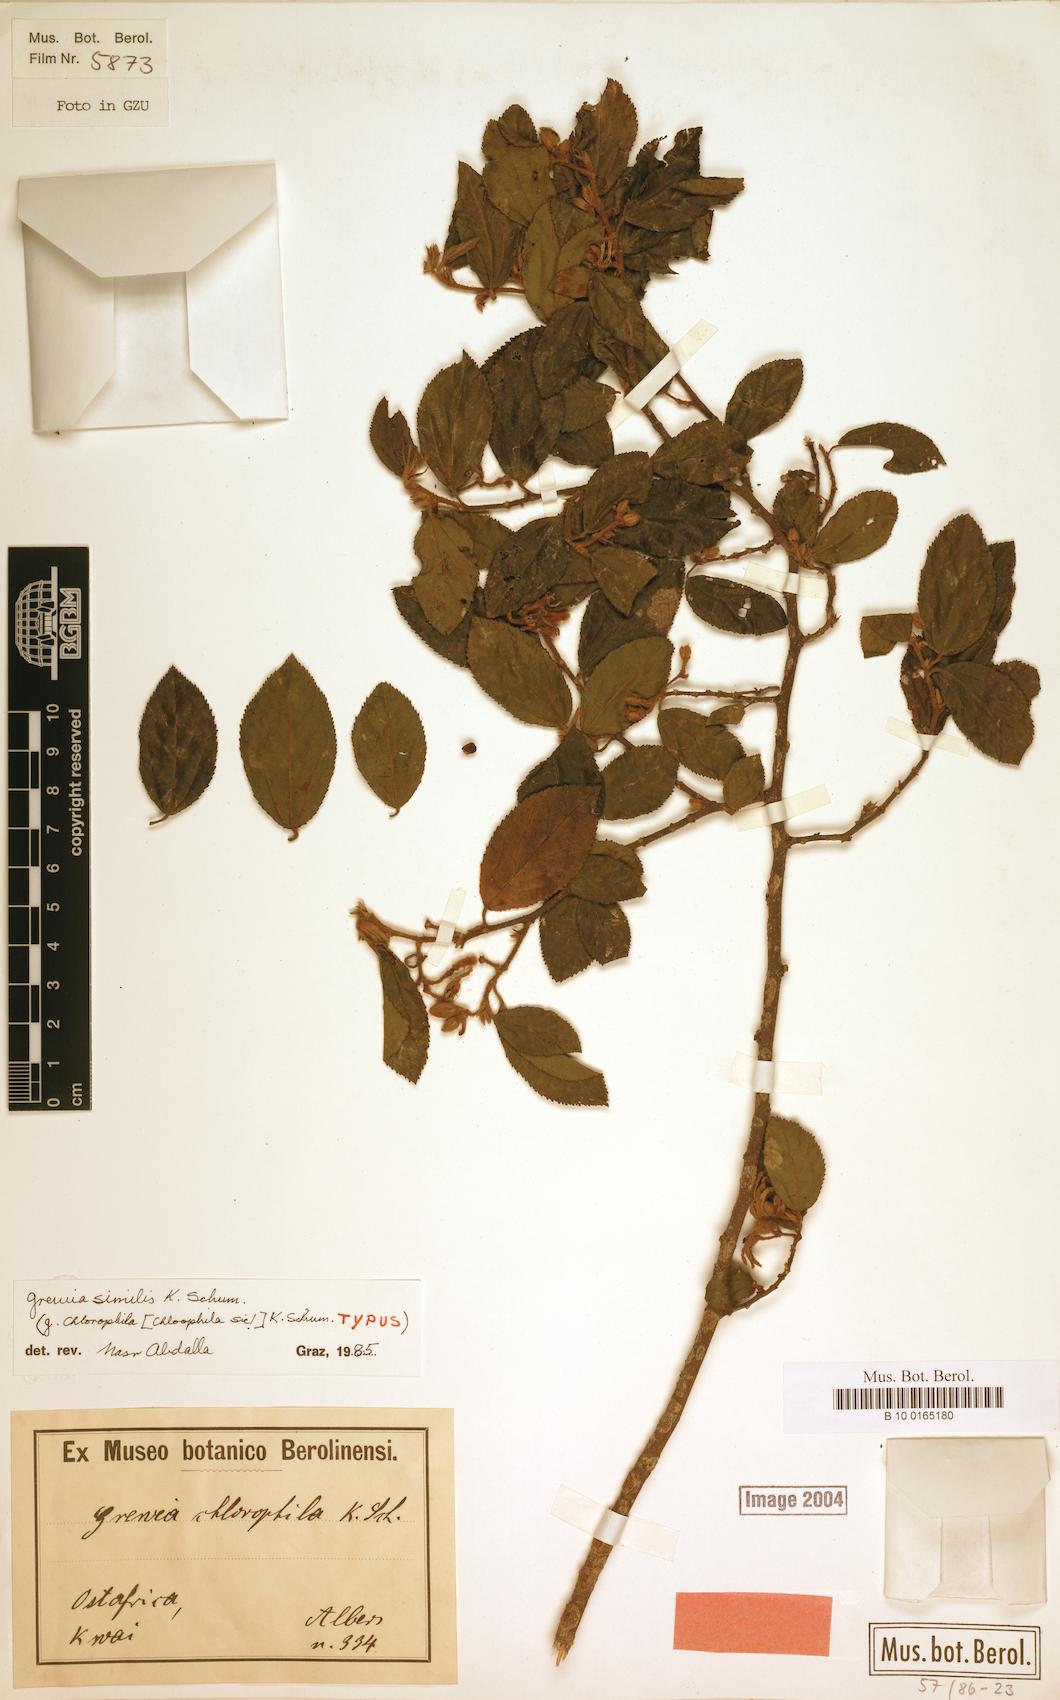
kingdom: Plantae
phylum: Tracheophyta
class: Magnoliopsida
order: Malvales
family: Malvaceae
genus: Grewia
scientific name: Grewia similis
